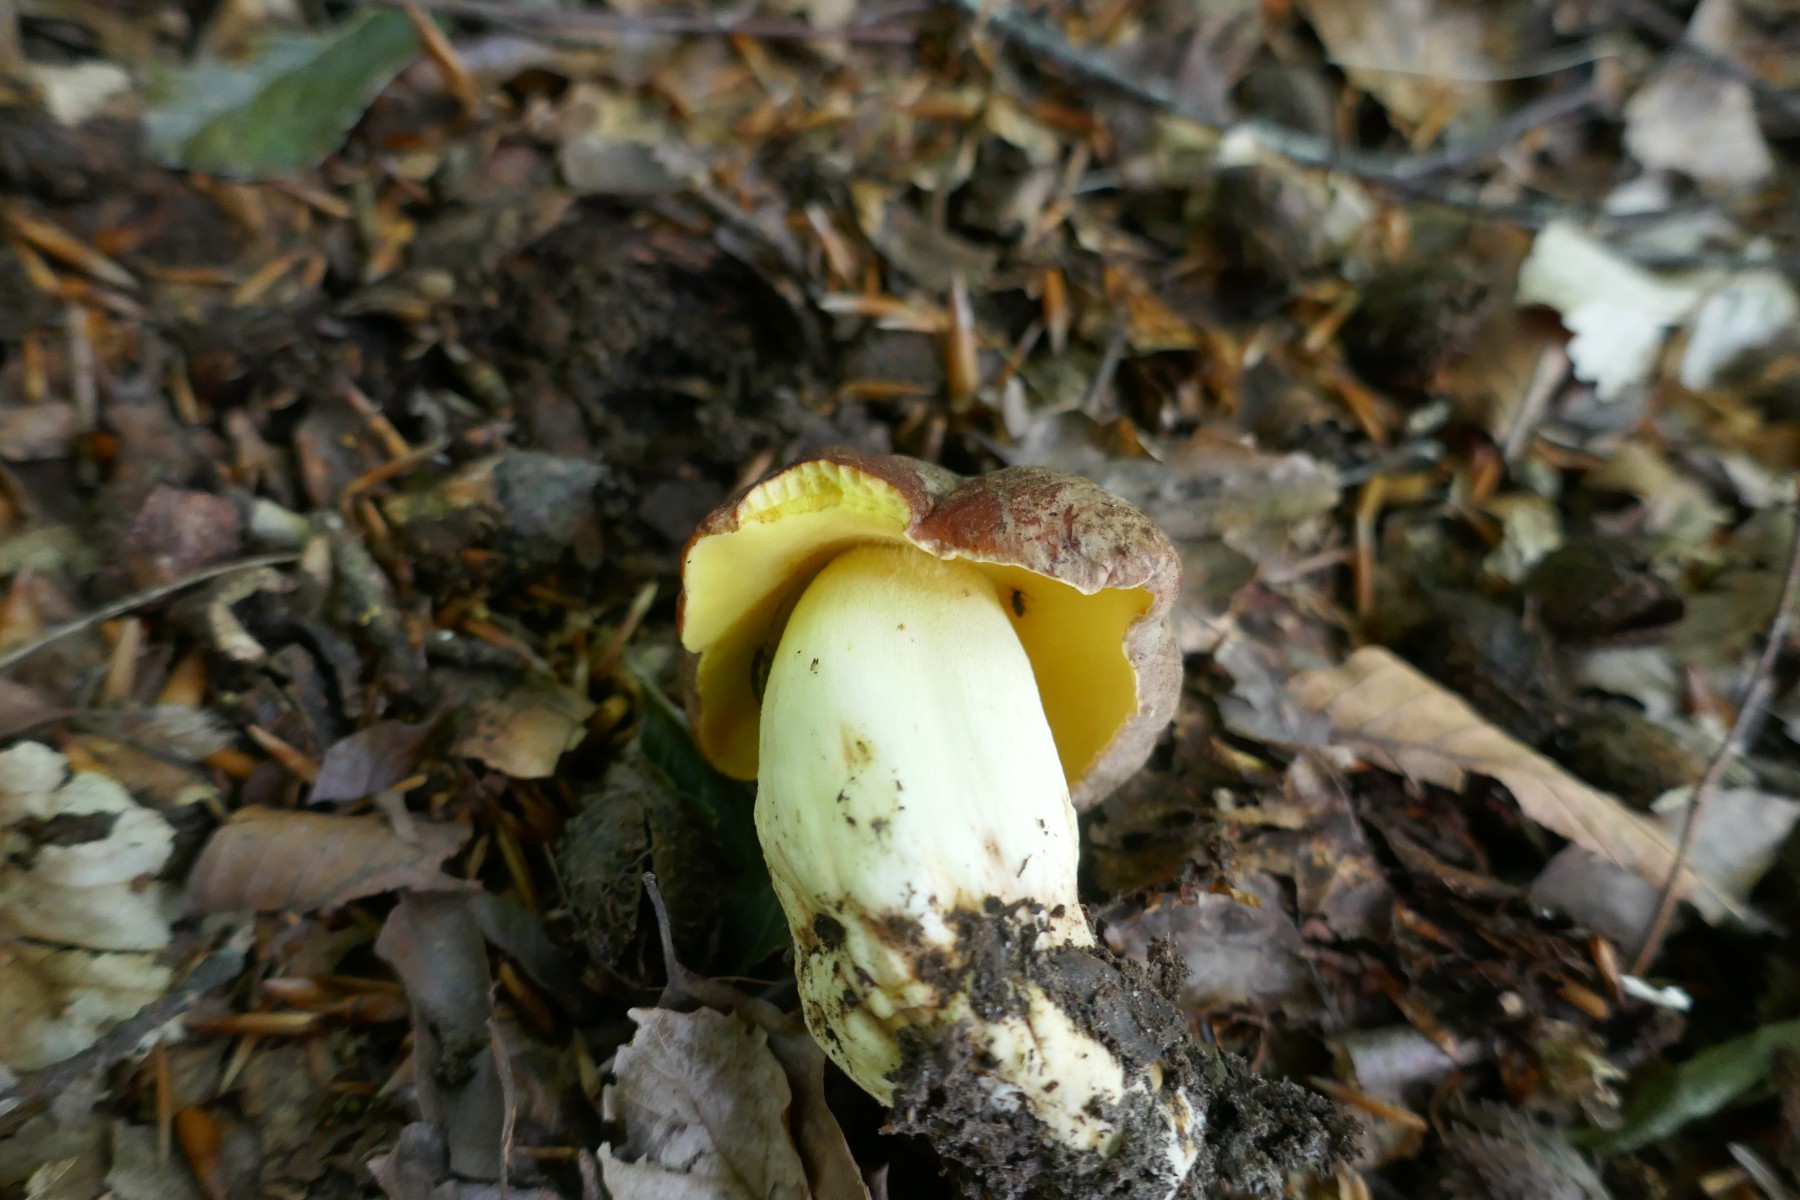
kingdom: Fungi
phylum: Basidiomycota
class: Agaricomycetes
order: Boletales
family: Boletaceae
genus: Butyriboletus
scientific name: Butyriboletus appendiculatus
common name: tenstokket rørhat
